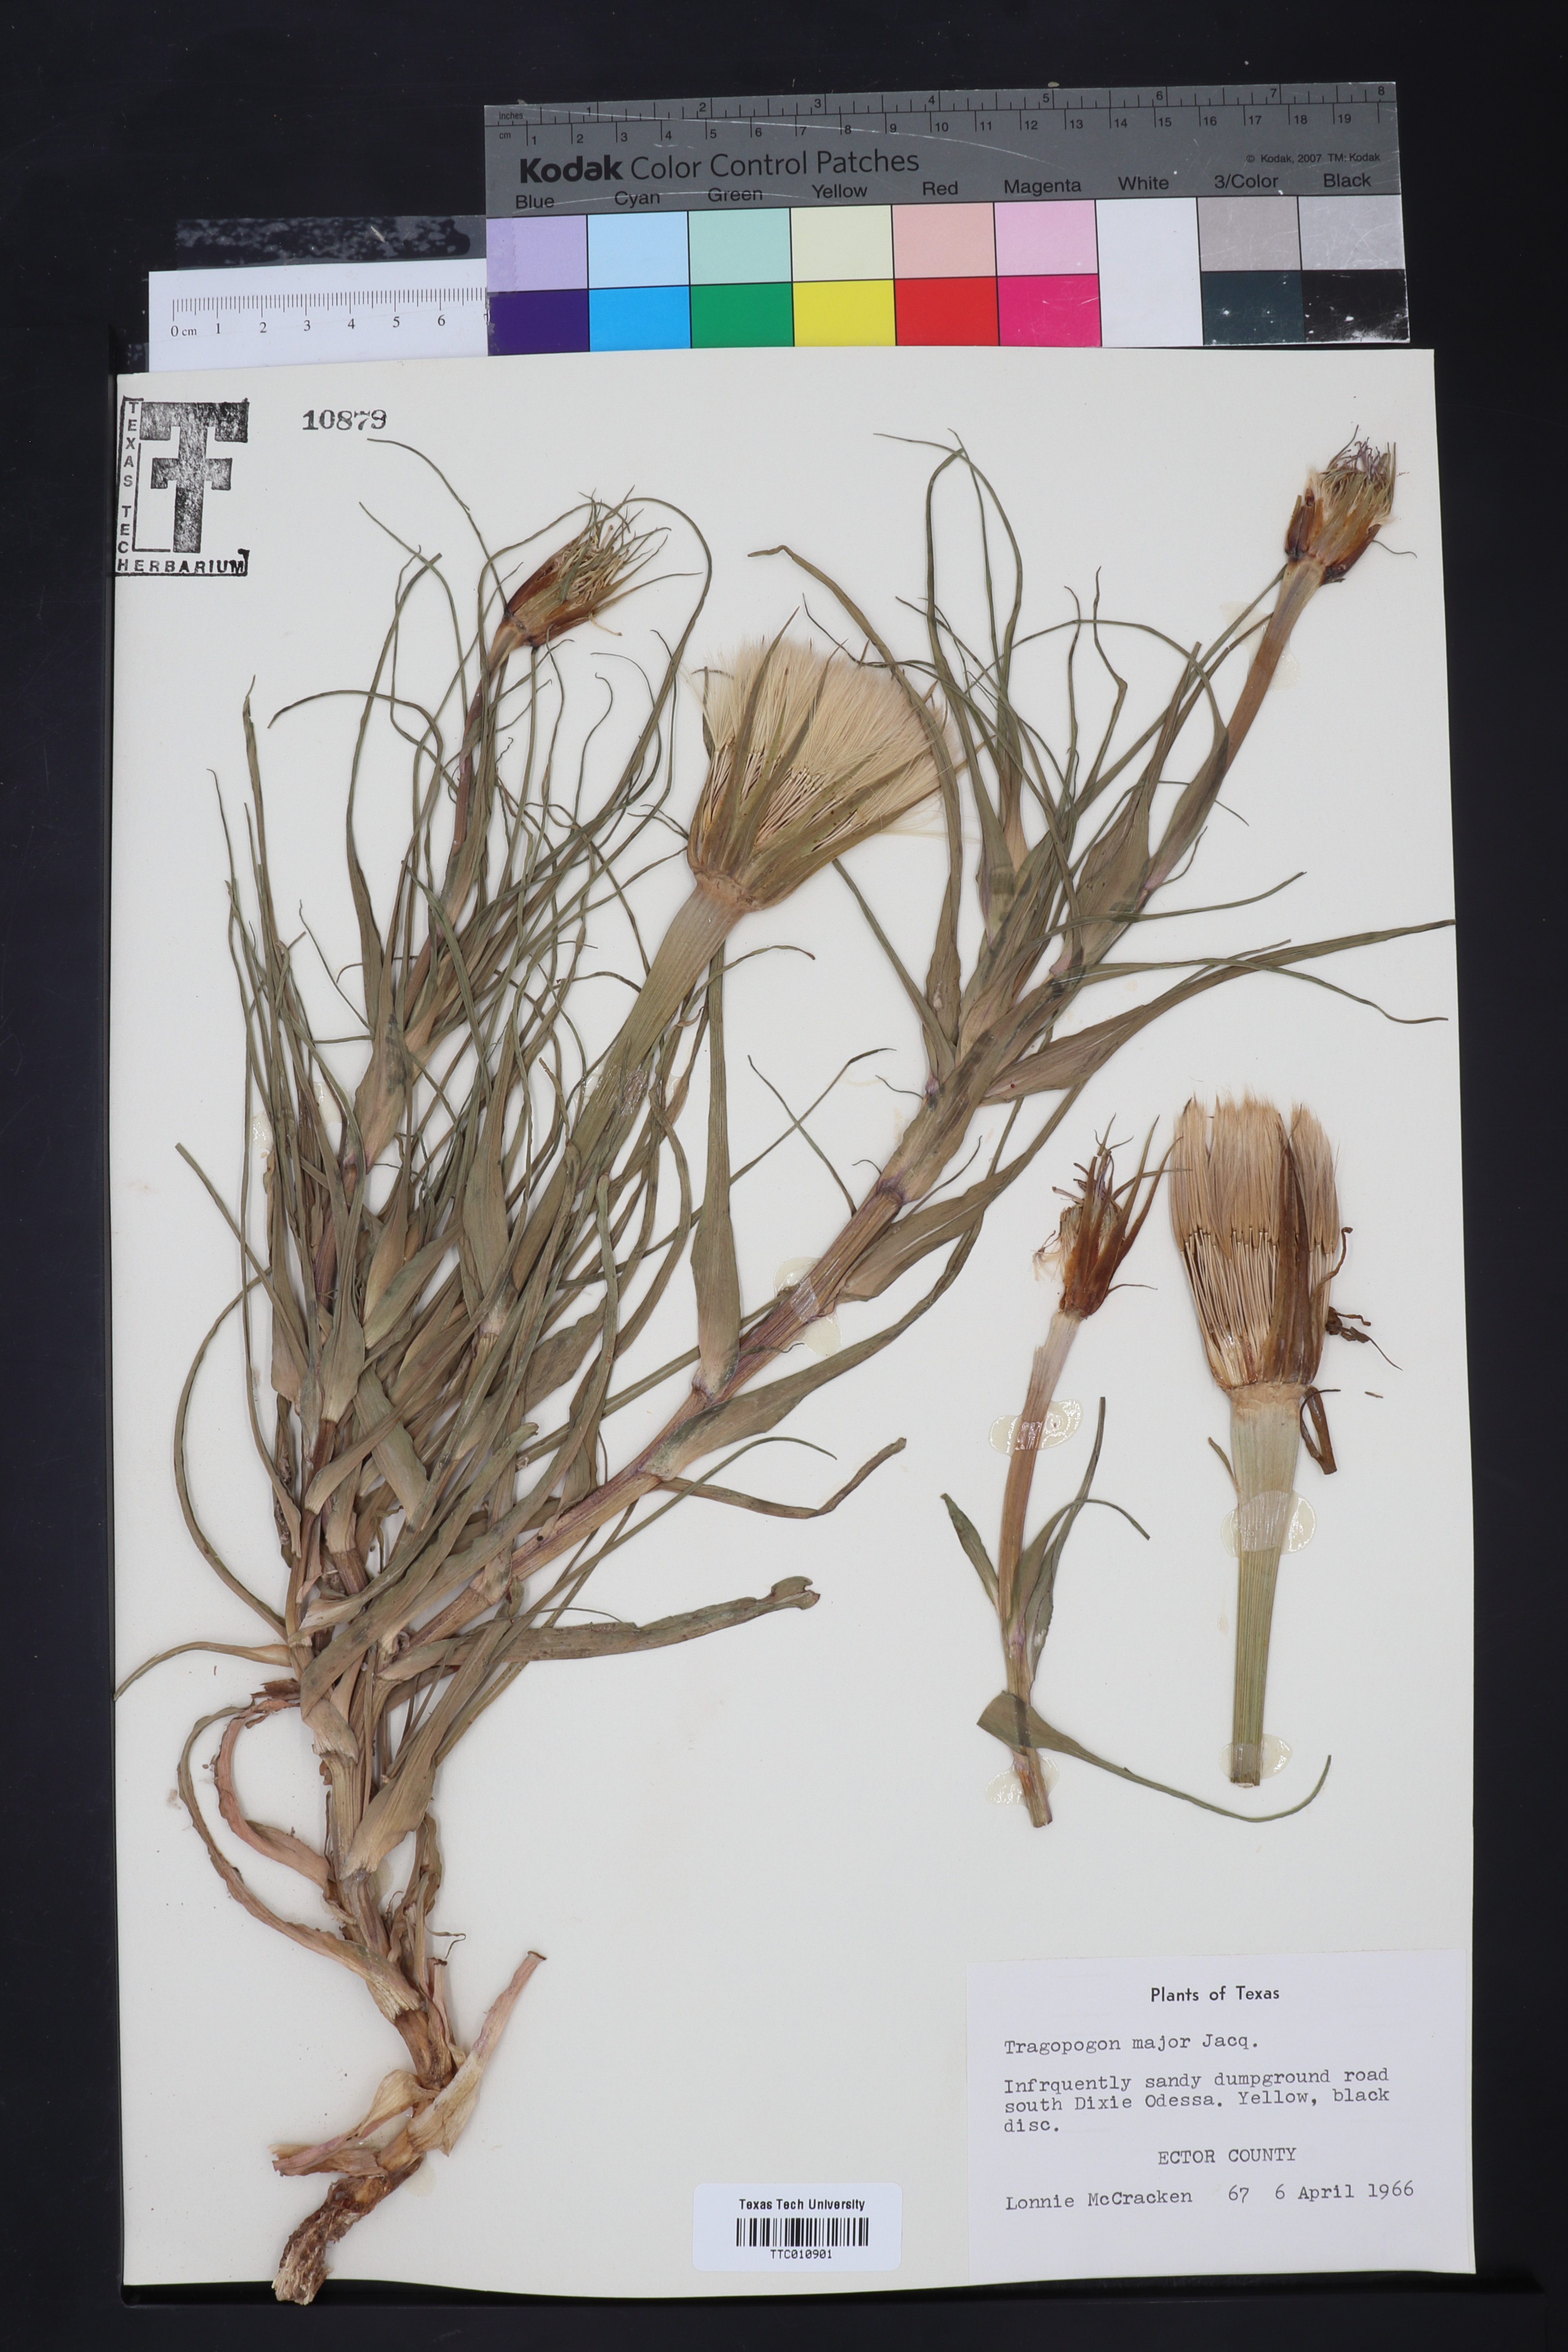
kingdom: Plantae
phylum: Tracheophyta
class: Magnoliopsida
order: Asterales
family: Asteraceae
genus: Tragopogon
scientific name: Tragopogon dubius
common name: Yellow salsify
